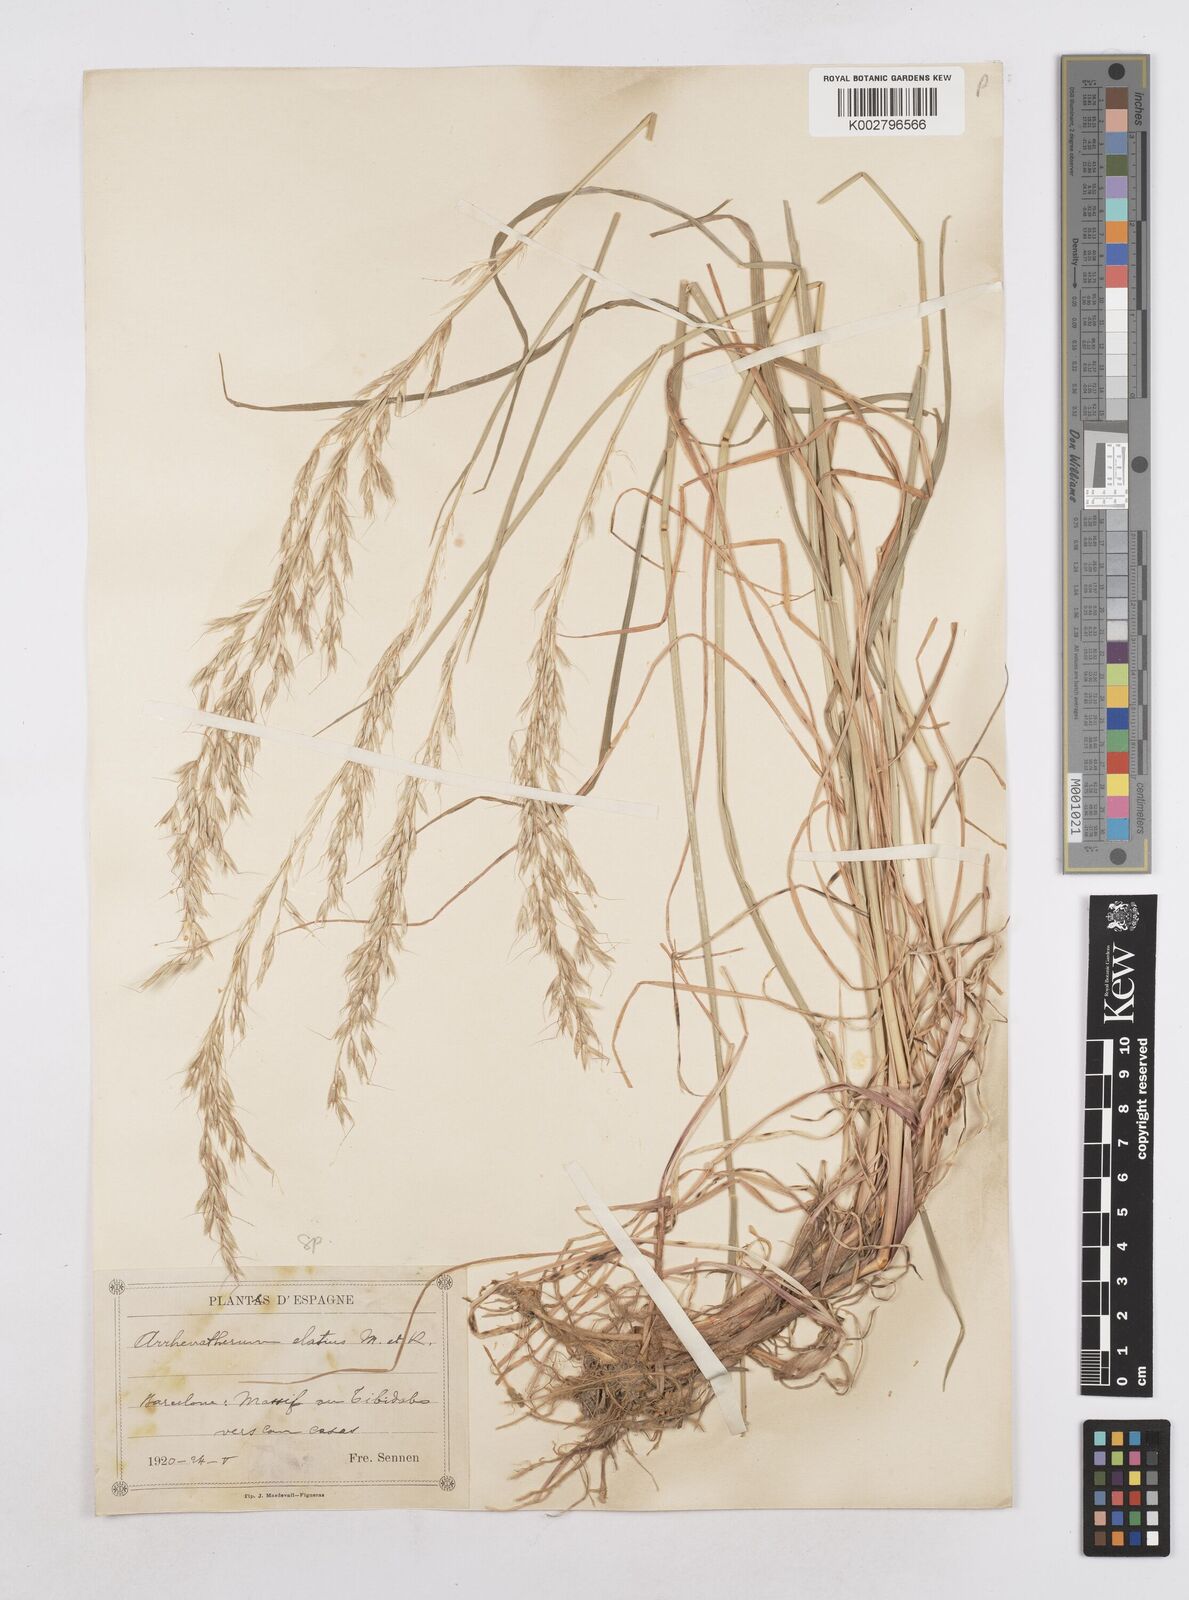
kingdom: Plantae
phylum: Tracheophyta
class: Liliopsida
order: Poales
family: Poaceae
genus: Arrhenatherum
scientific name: Arrhenatherum elatius
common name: Tall oatgrass
